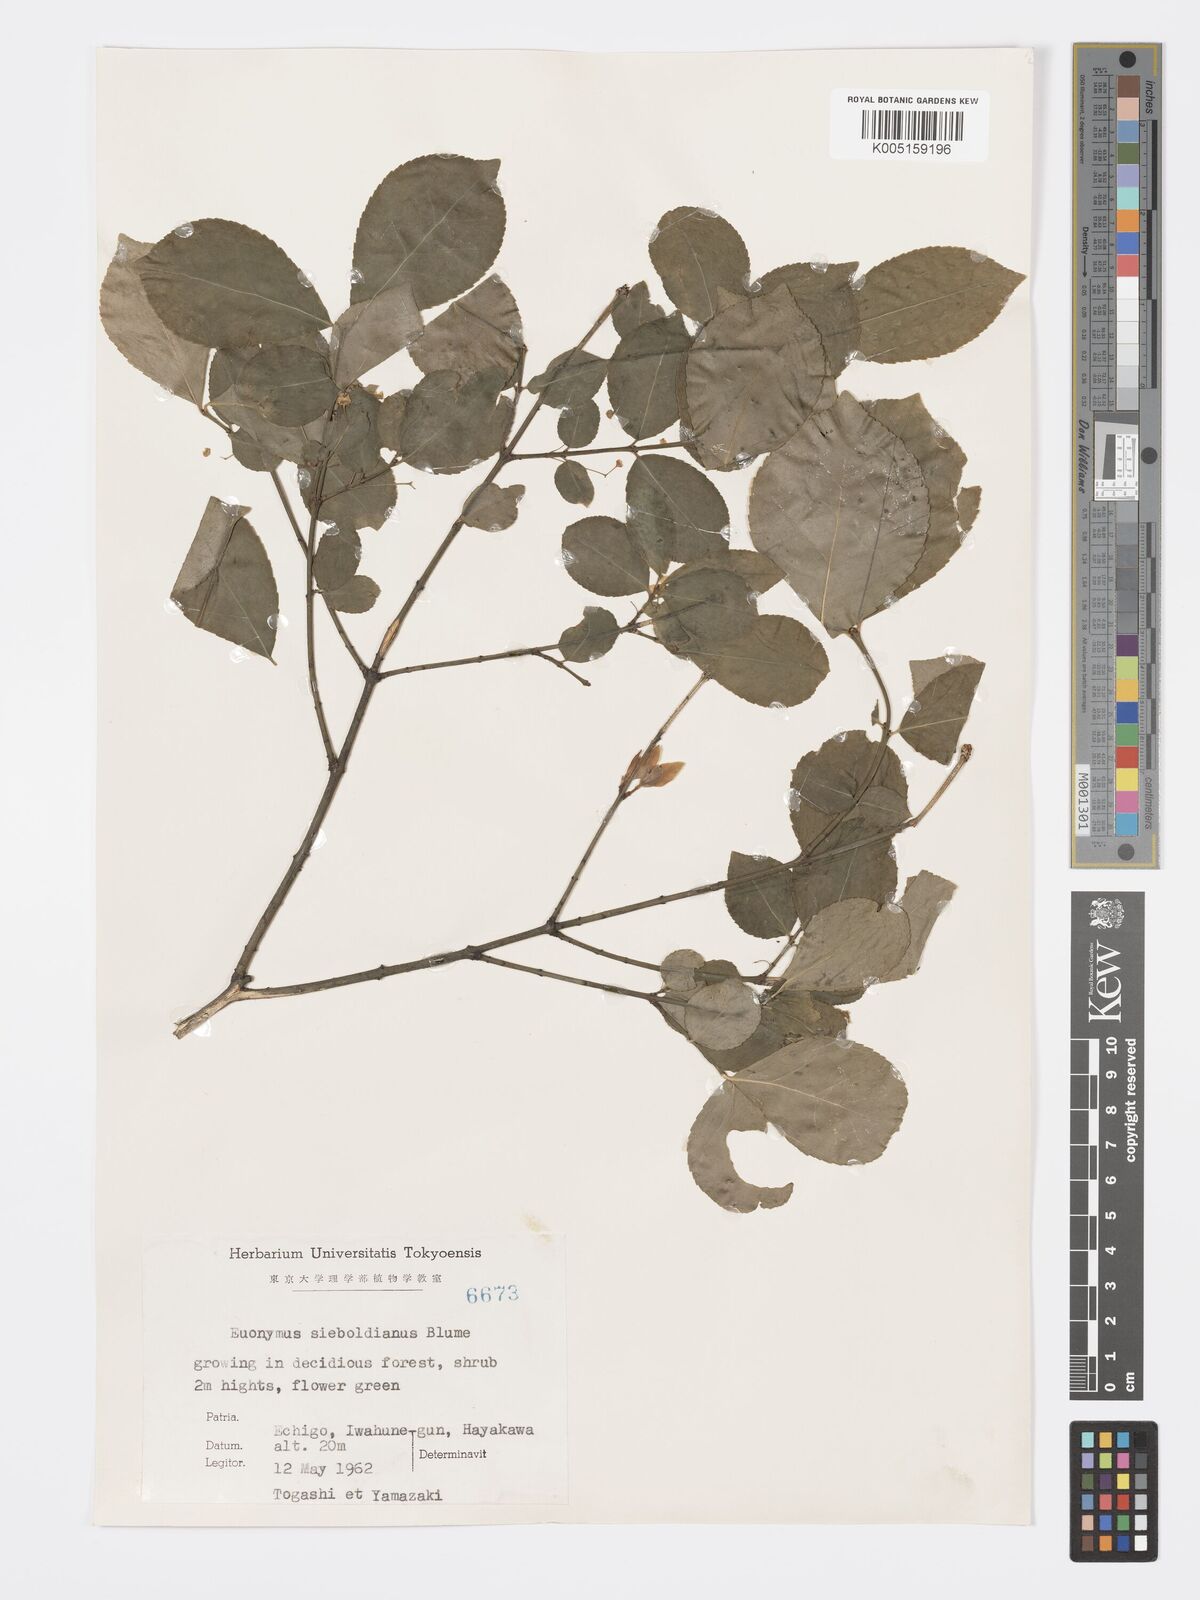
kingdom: Plantae
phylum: Tracheophyta
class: Magnoliopsida
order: Celastrales
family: Celastraceae
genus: Euonymus
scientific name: Euonymus hamiltonianus
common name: Hamilton's spindletree
